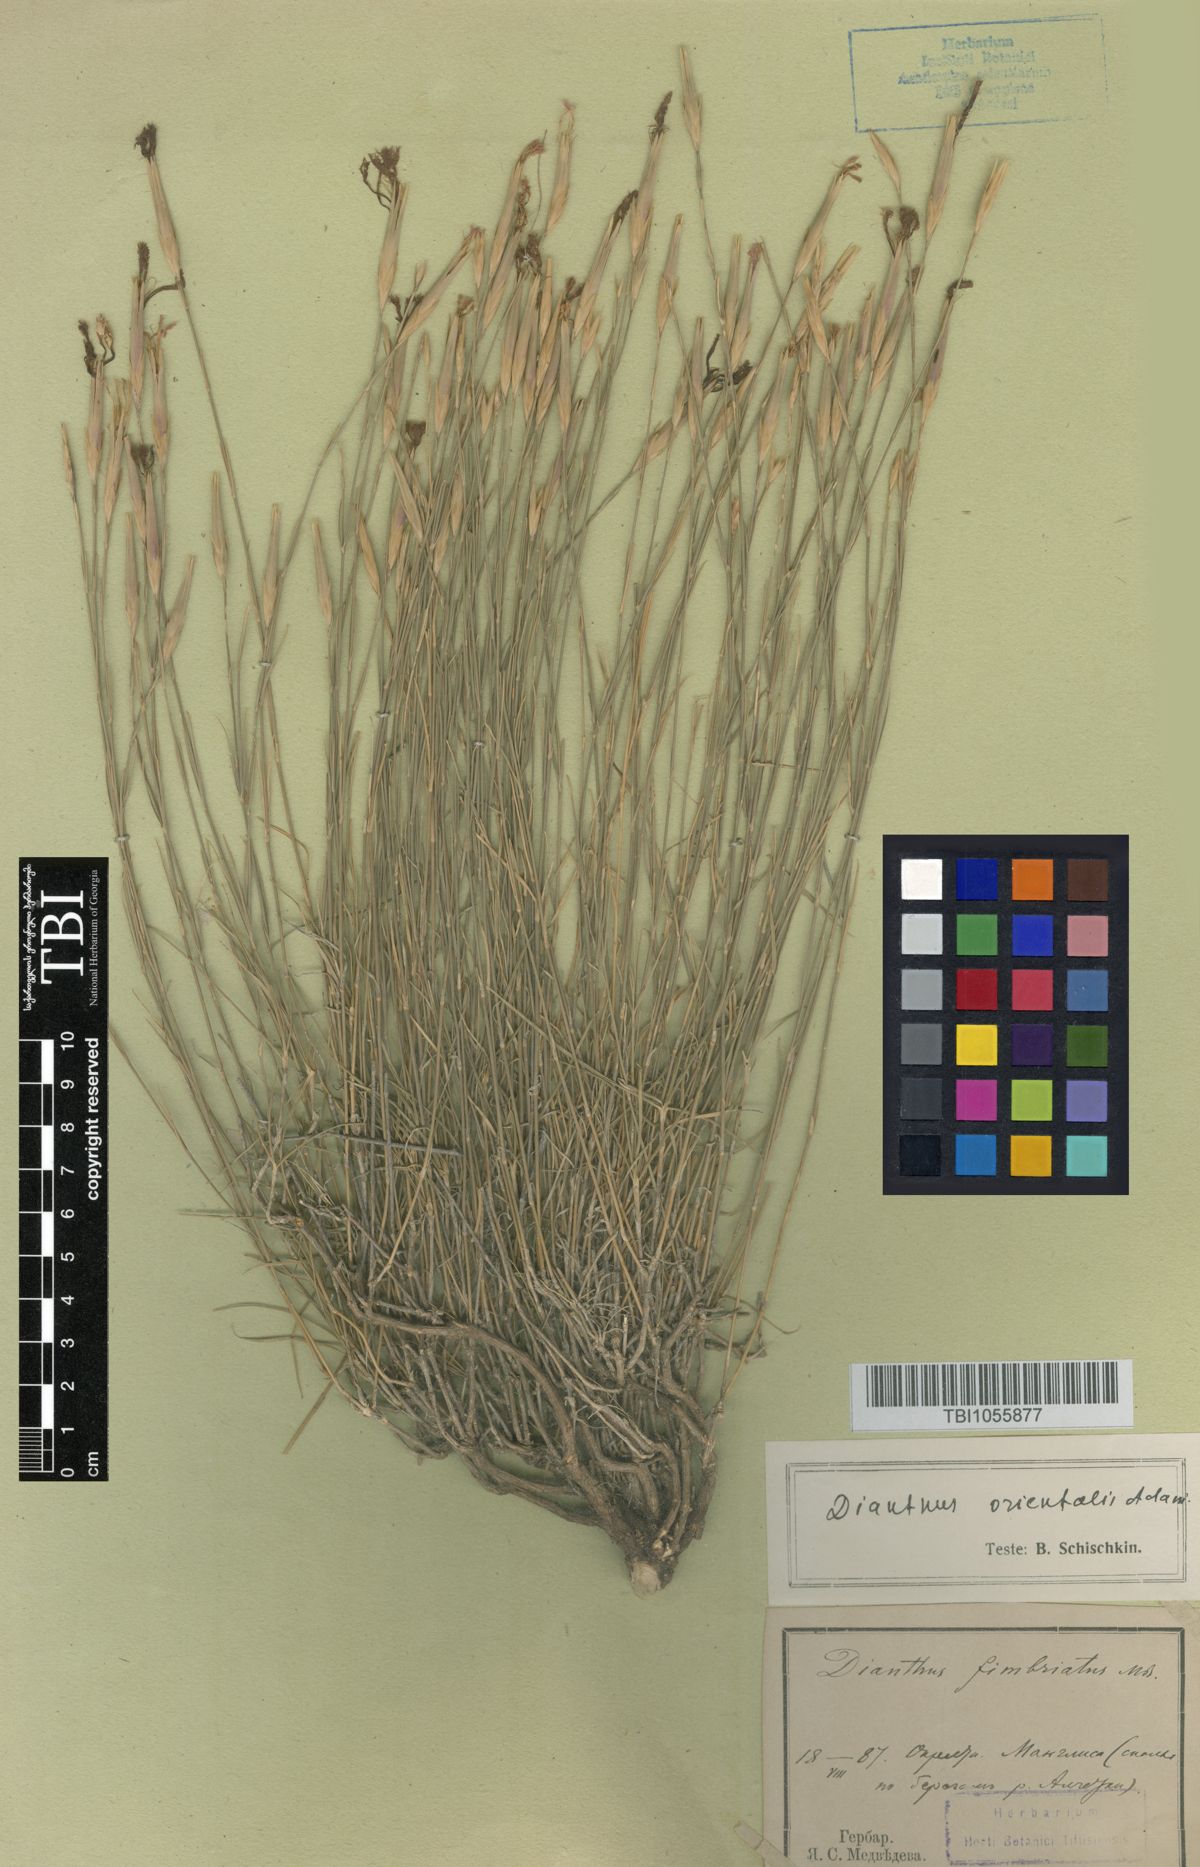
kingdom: Plantae
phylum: Tracheophyta
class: Magnoliopsida
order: Caryophyllales
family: Caryophyllaceae
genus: Dianthus
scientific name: Dianthus orientalis
